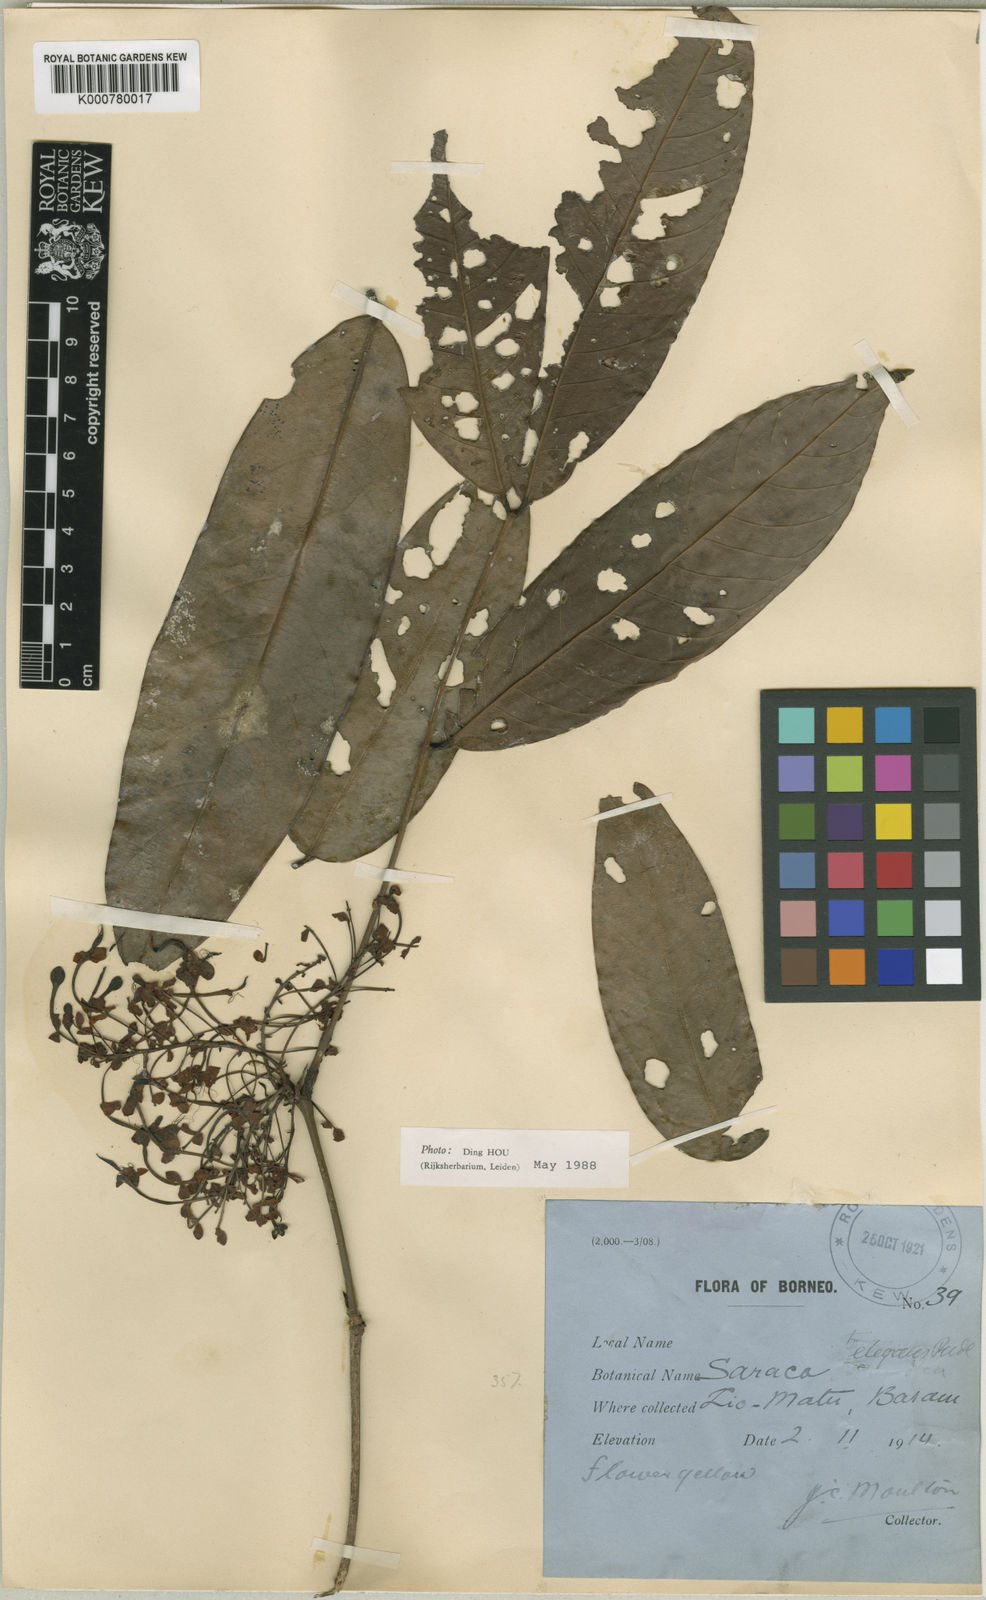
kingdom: Plantae
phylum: Tracheophyta
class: Magnoliopsida
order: Fabales
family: Fabaceae
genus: Saraca
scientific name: Saraca declinata
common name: Red saraca
